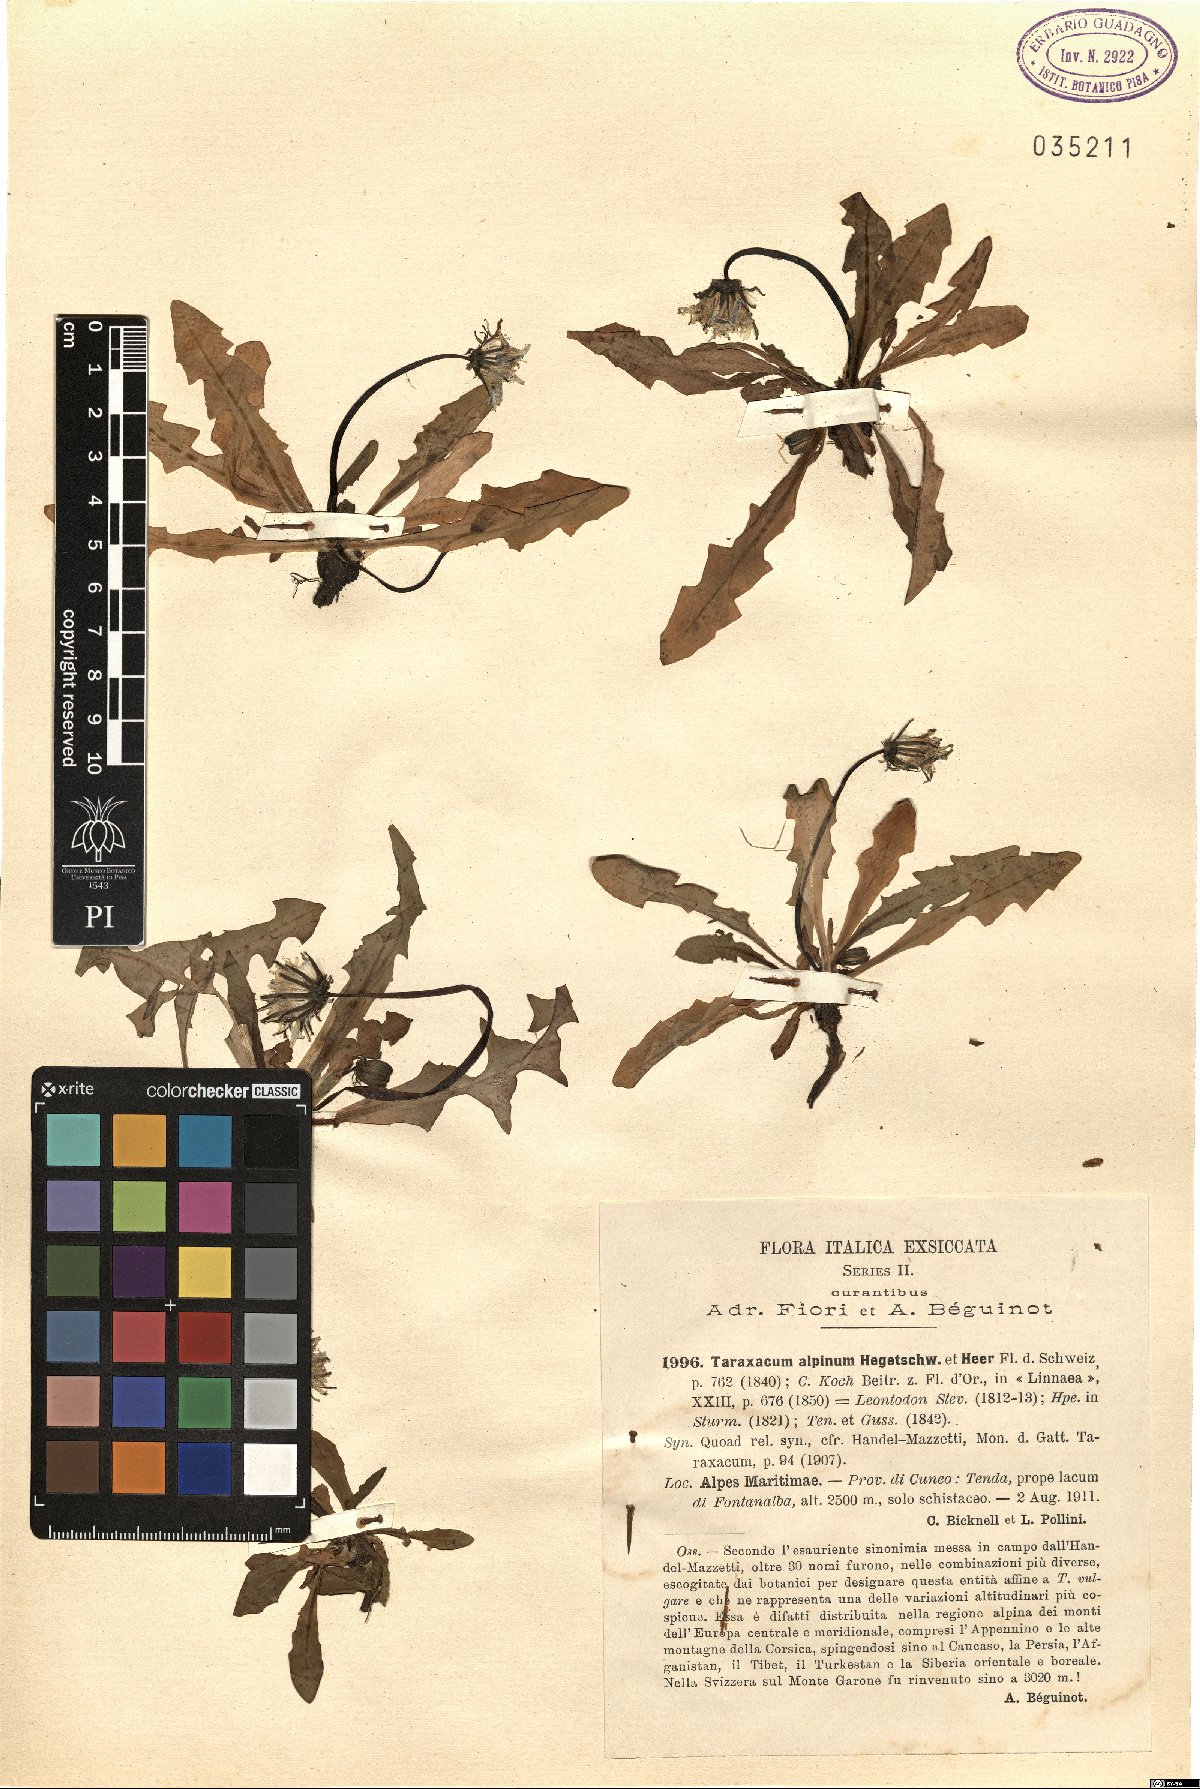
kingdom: Plantae
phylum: Tracheophyta
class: Magnoliopsida
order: Asterales
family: Asteraceae
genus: Taraxacum
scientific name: Taraxacum alpinum
